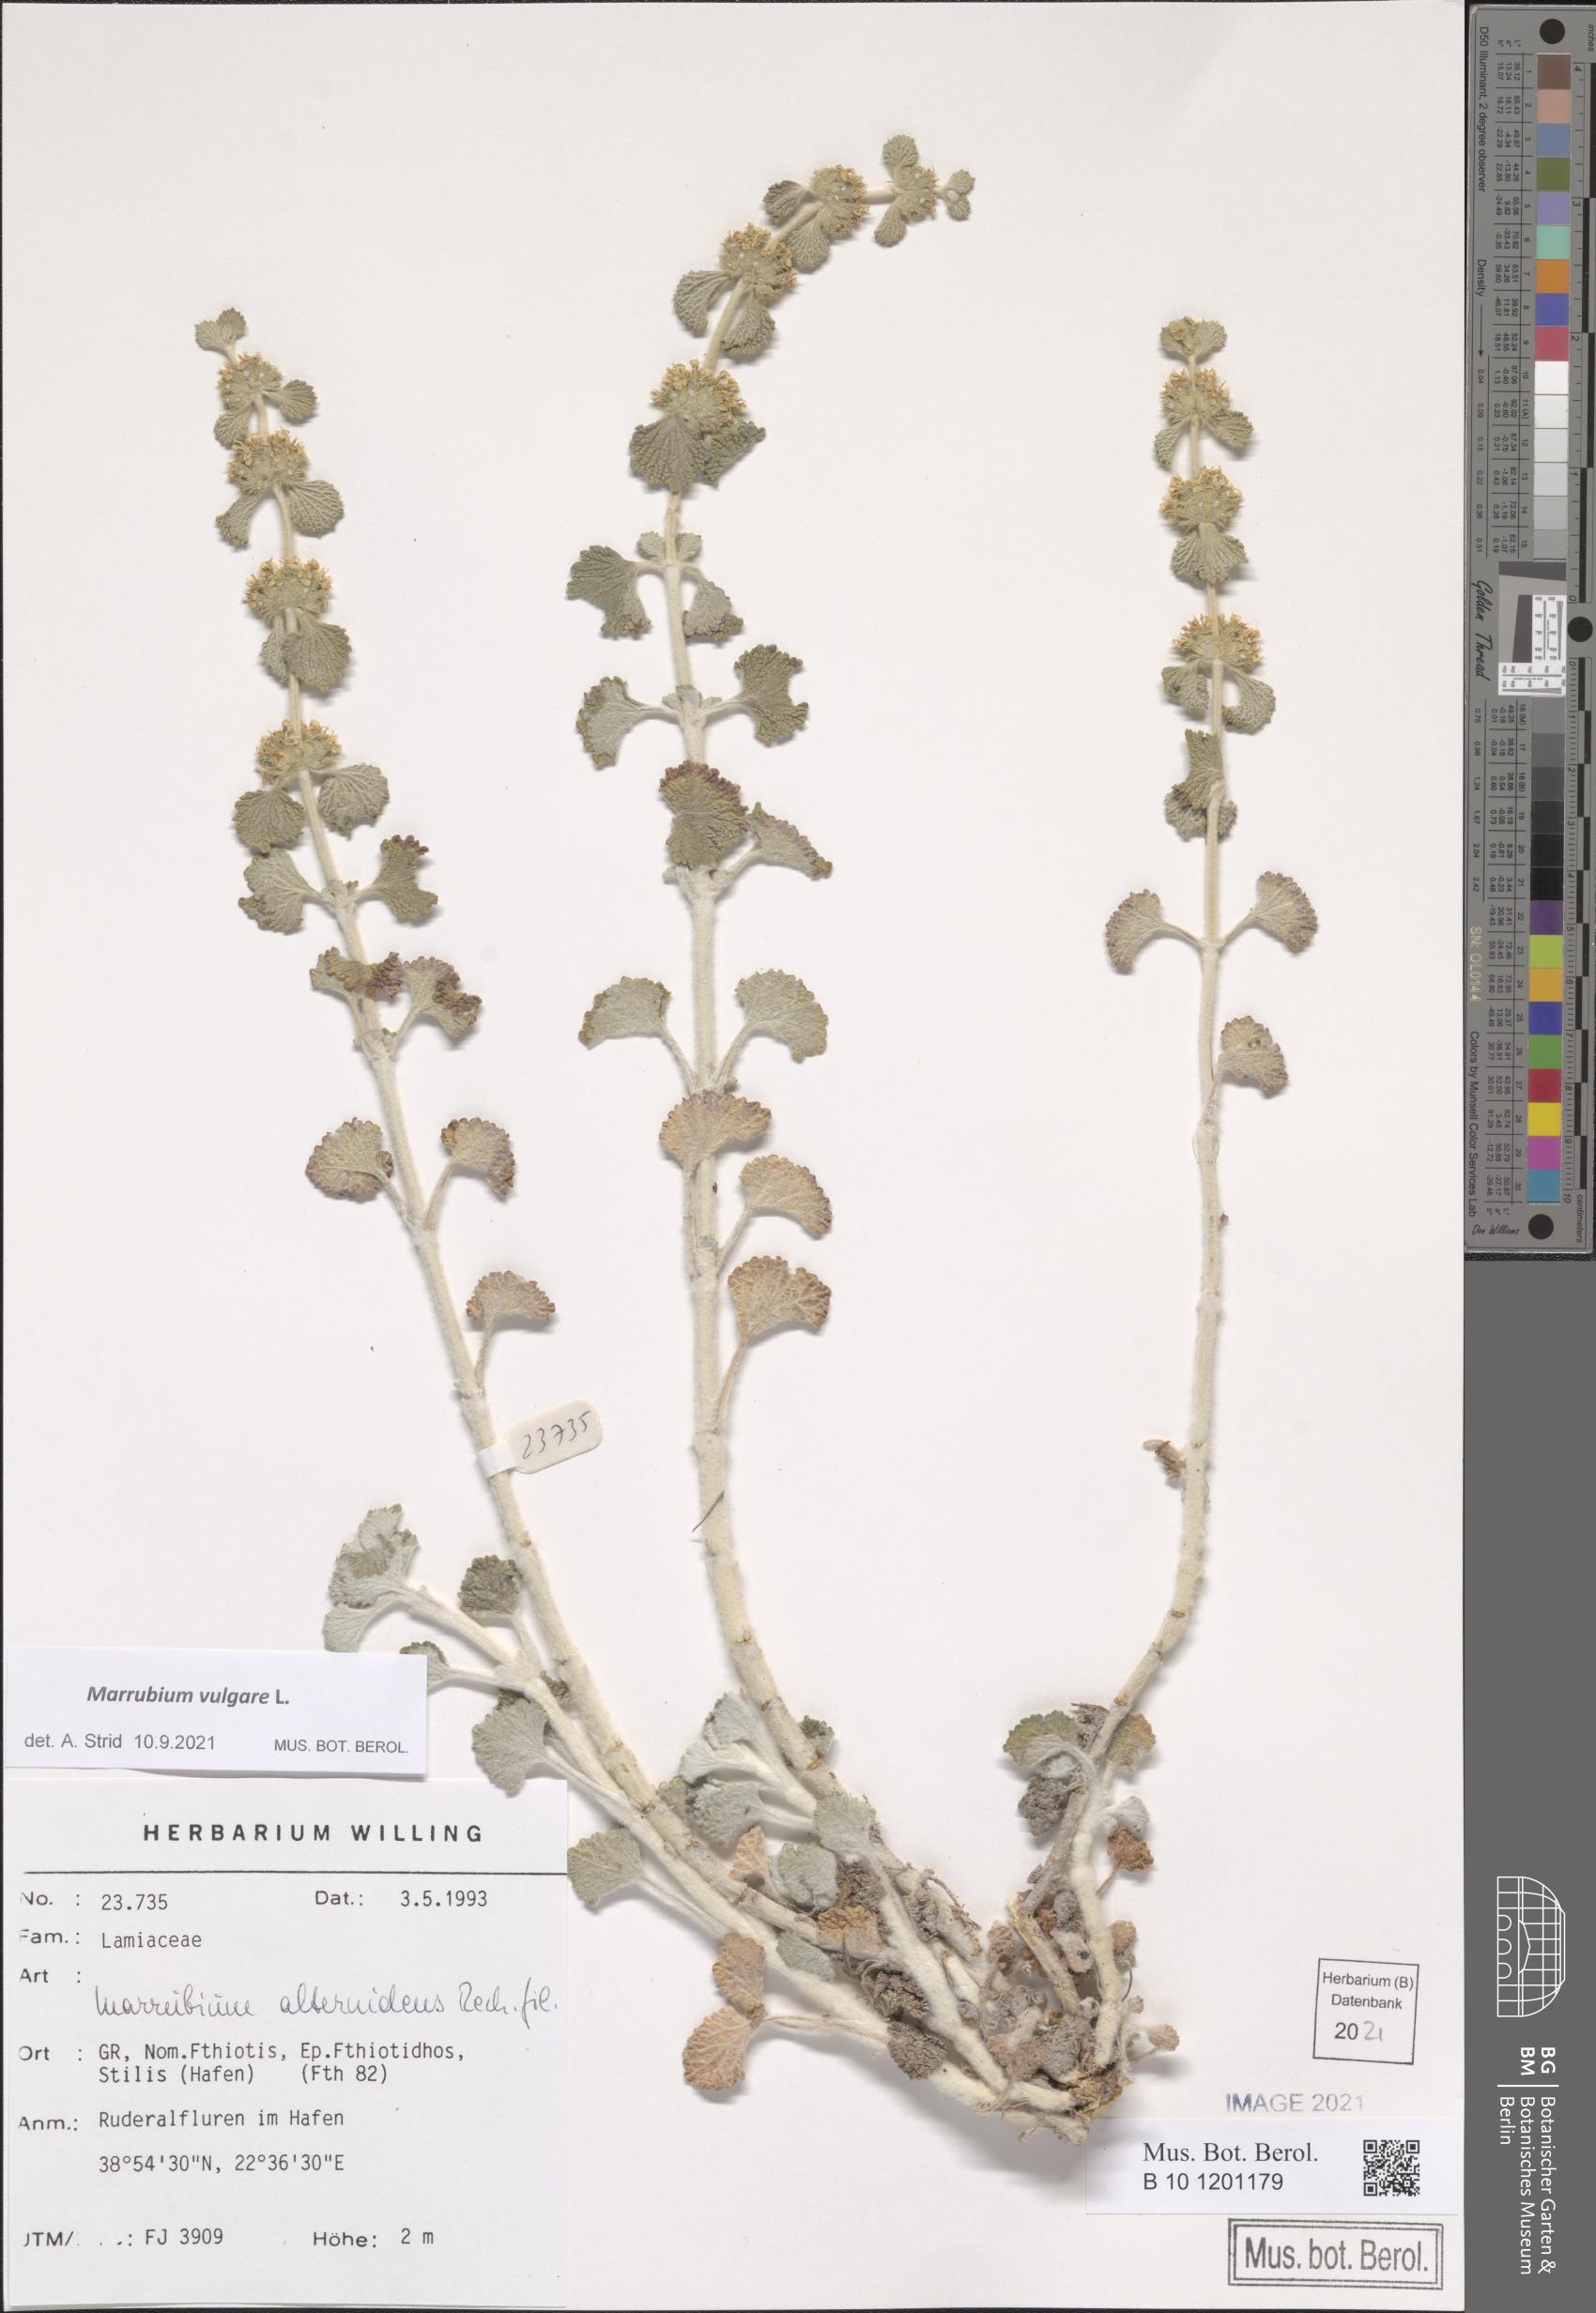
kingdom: Plantae
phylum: Tracheophyta
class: Magnoliopsida
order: Lamiales
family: Lamiaceae
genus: Marrubium
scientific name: Marrubium vulgare
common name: Horehound
